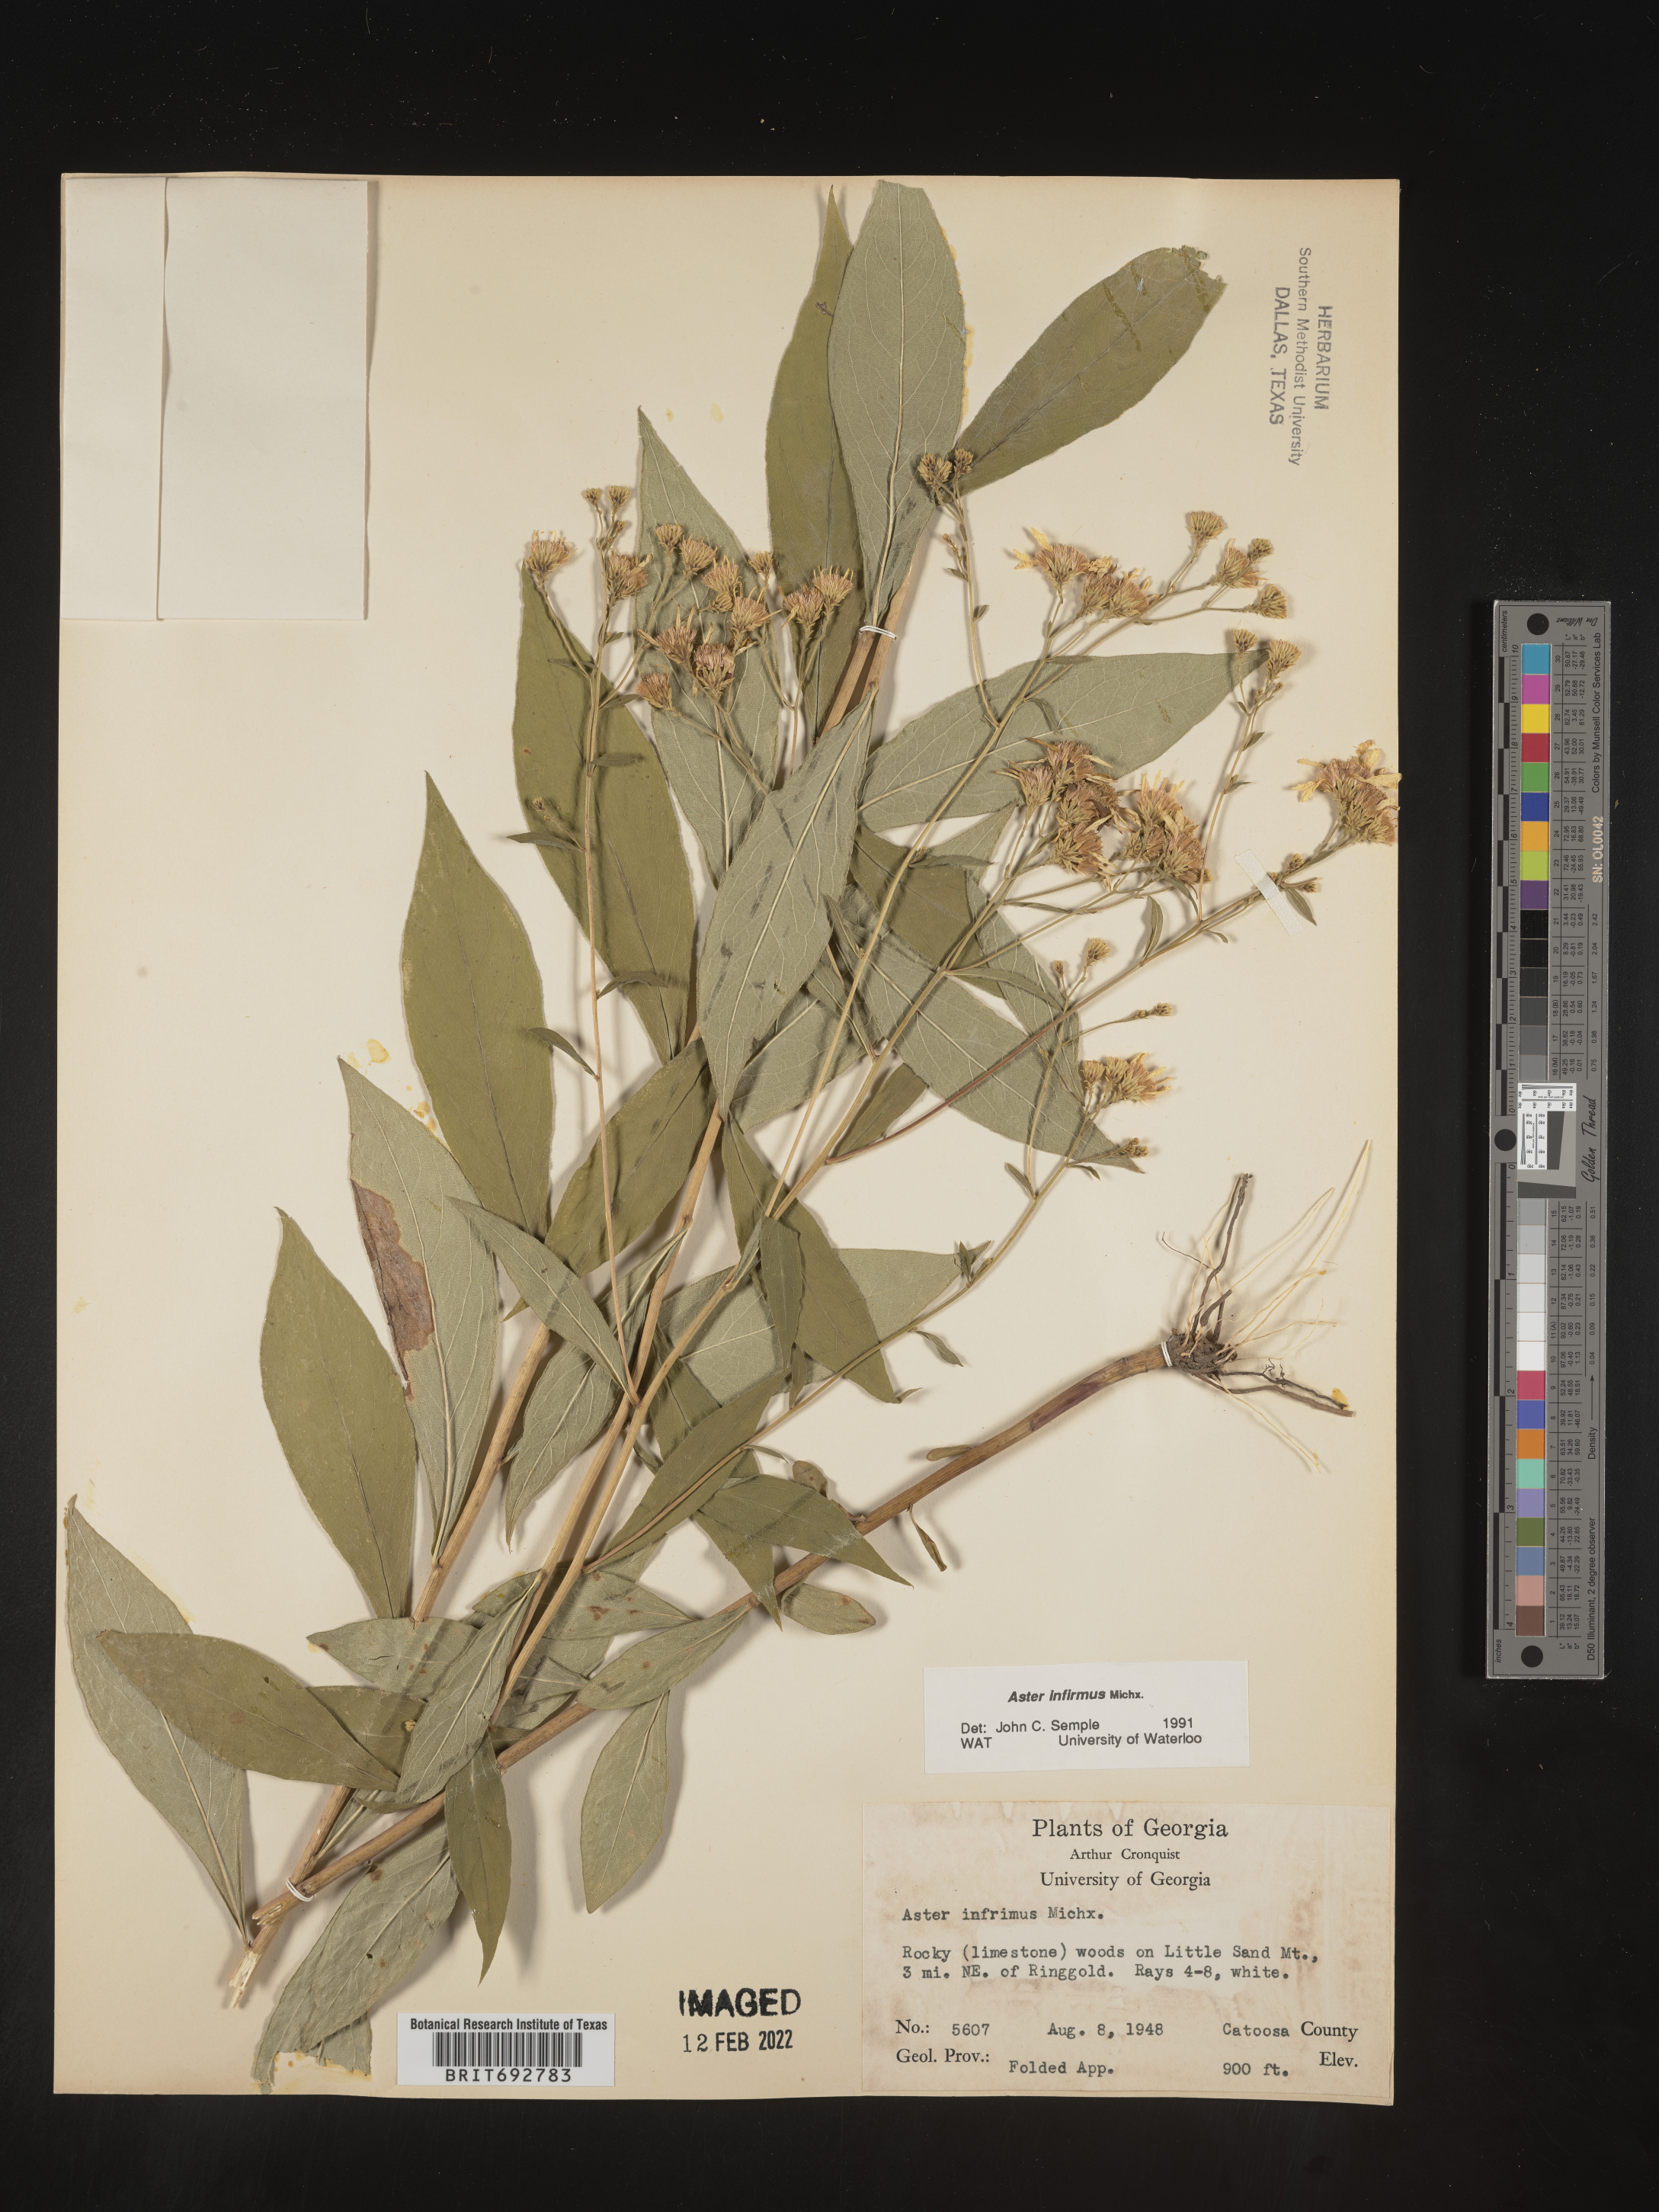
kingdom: Plantae
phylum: Tracheophyta
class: Magnoliopsida
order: Asterales
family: Asteraceae
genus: Doellingeria
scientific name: Doellingeria infirma
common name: Appalachian flat-top aster
